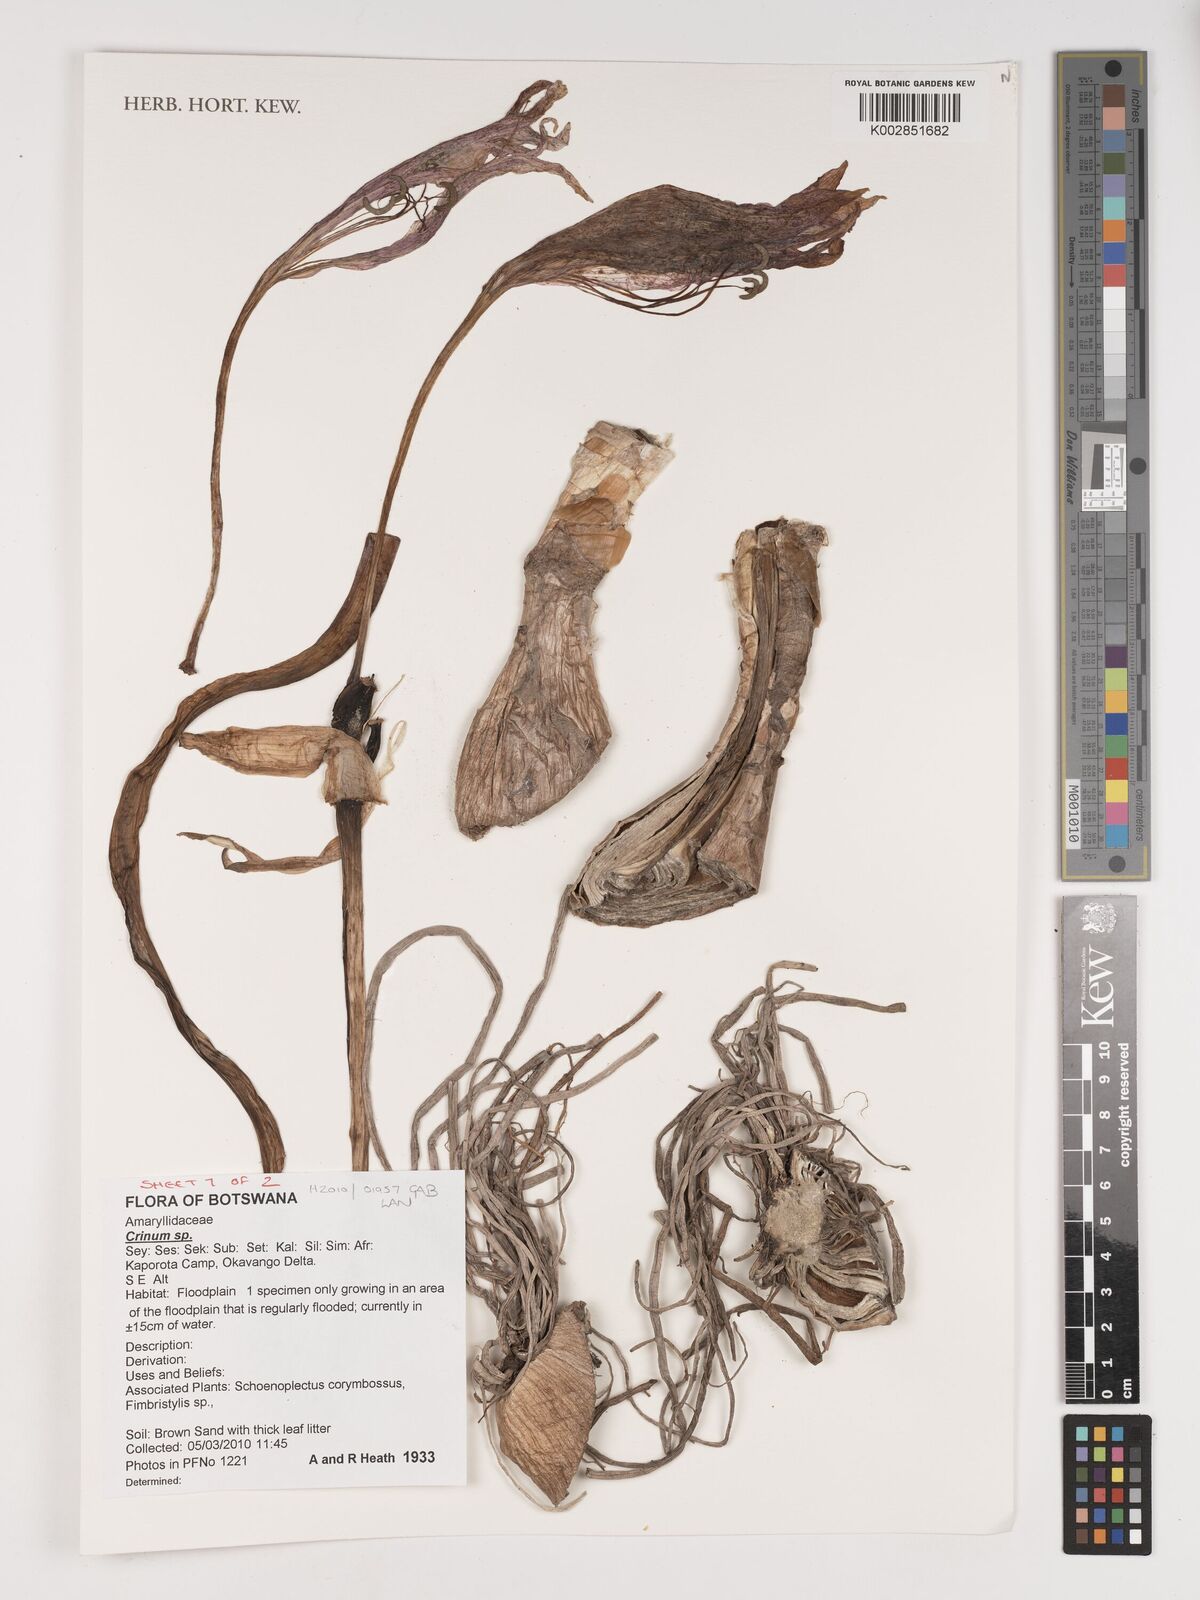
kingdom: Plantae
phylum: Tracheophyta
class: Liliopsida
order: Asparagales
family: Amaryllidaceae
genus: Crinum
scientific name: Crinum
